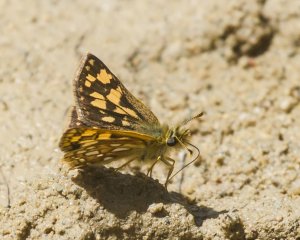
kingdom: Animalia
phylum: Arthropoda
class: Insecta
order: Lepidoptera
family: Hesperiidae
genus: Carterocephalus
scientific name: Carterocephalus palaemon
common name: Chequered Skipper
